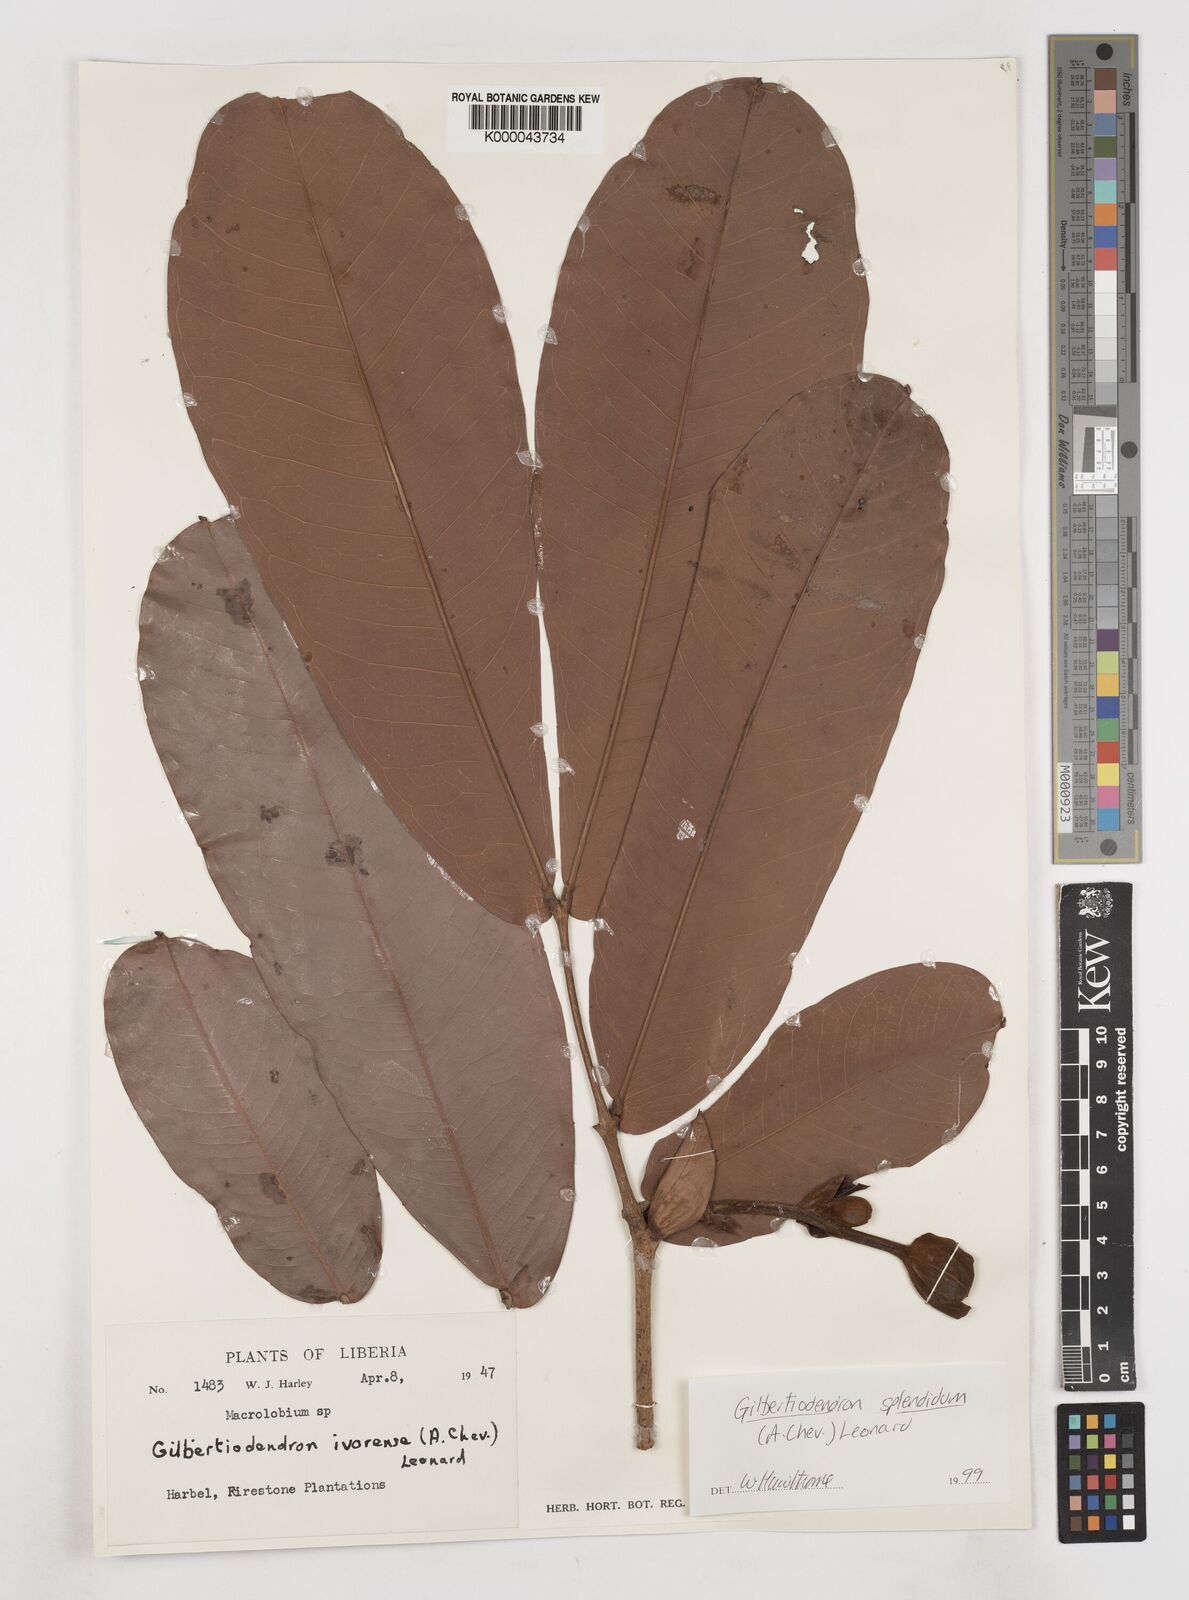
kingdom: Plantae
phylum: Tracheophyta
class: Magnoliopsida
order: Fabales
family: Fabaceae
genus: Gilbertiodendron
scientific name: Gilbertiodendron
